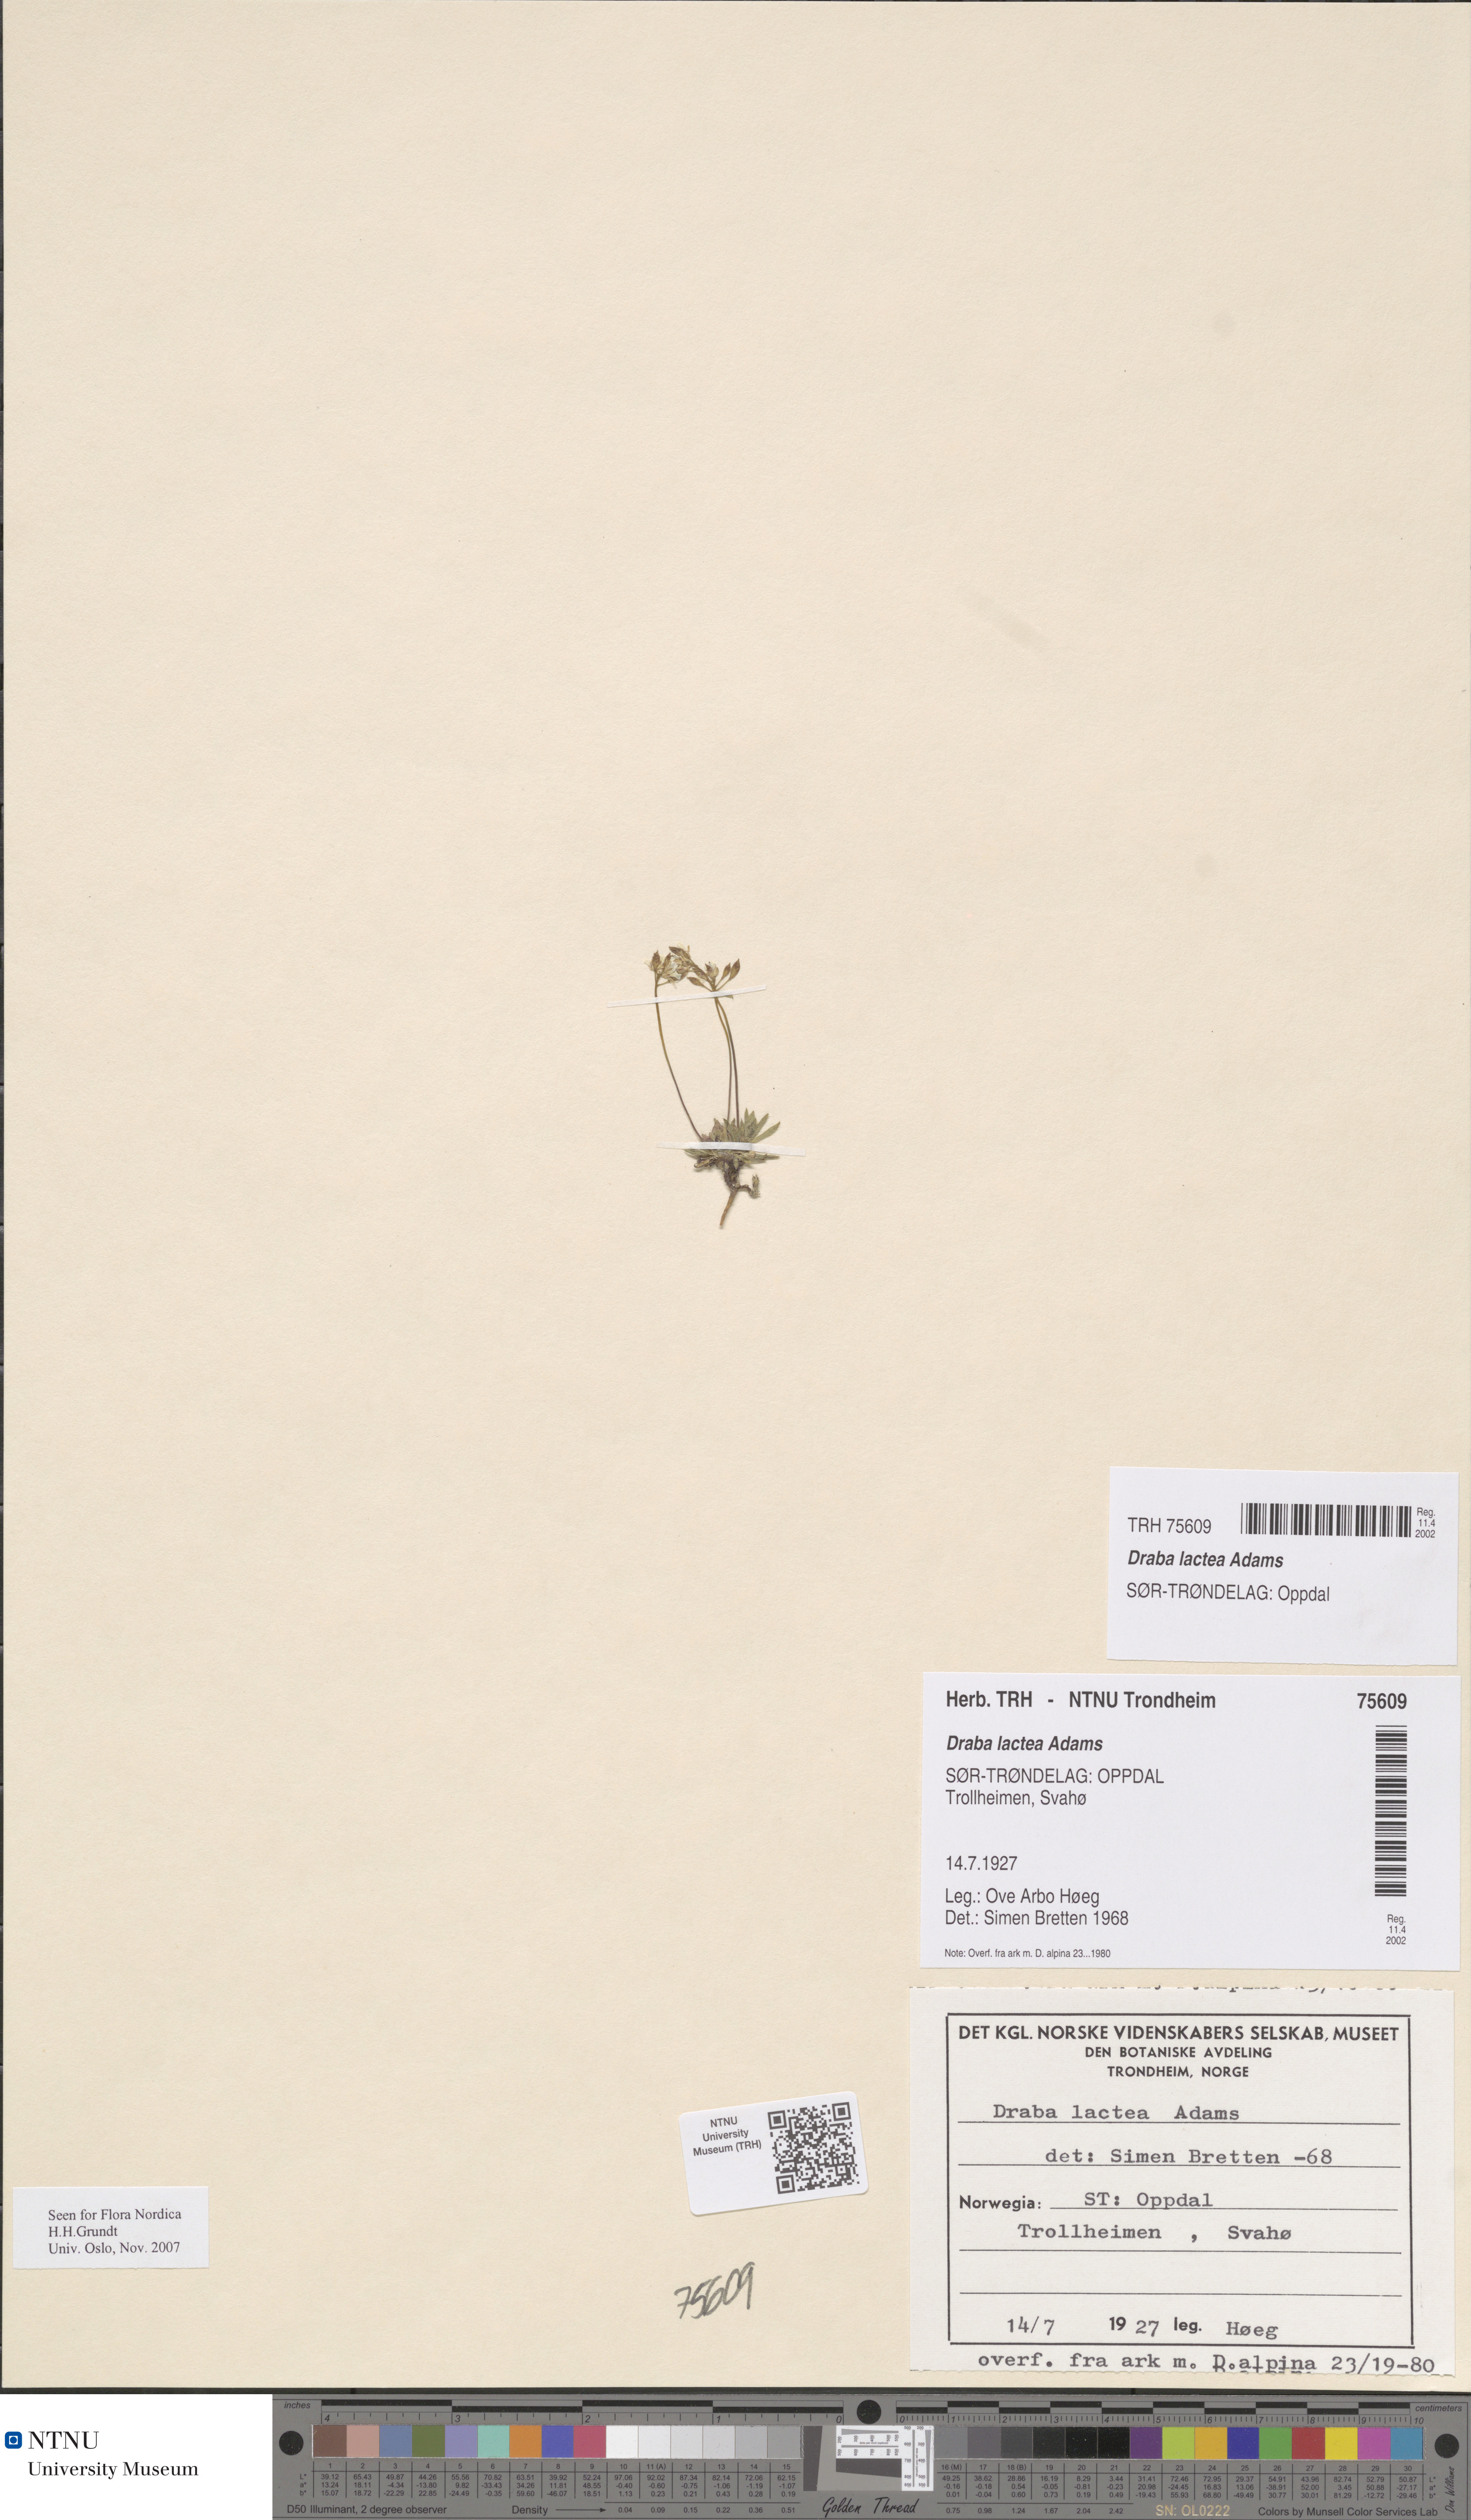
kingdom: Plantae
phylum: Tracheophyta
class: Magnoliopsida
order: Brassicales
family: Brassicaceae
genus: Draba
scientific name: Draba lactea
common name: Milky draba
